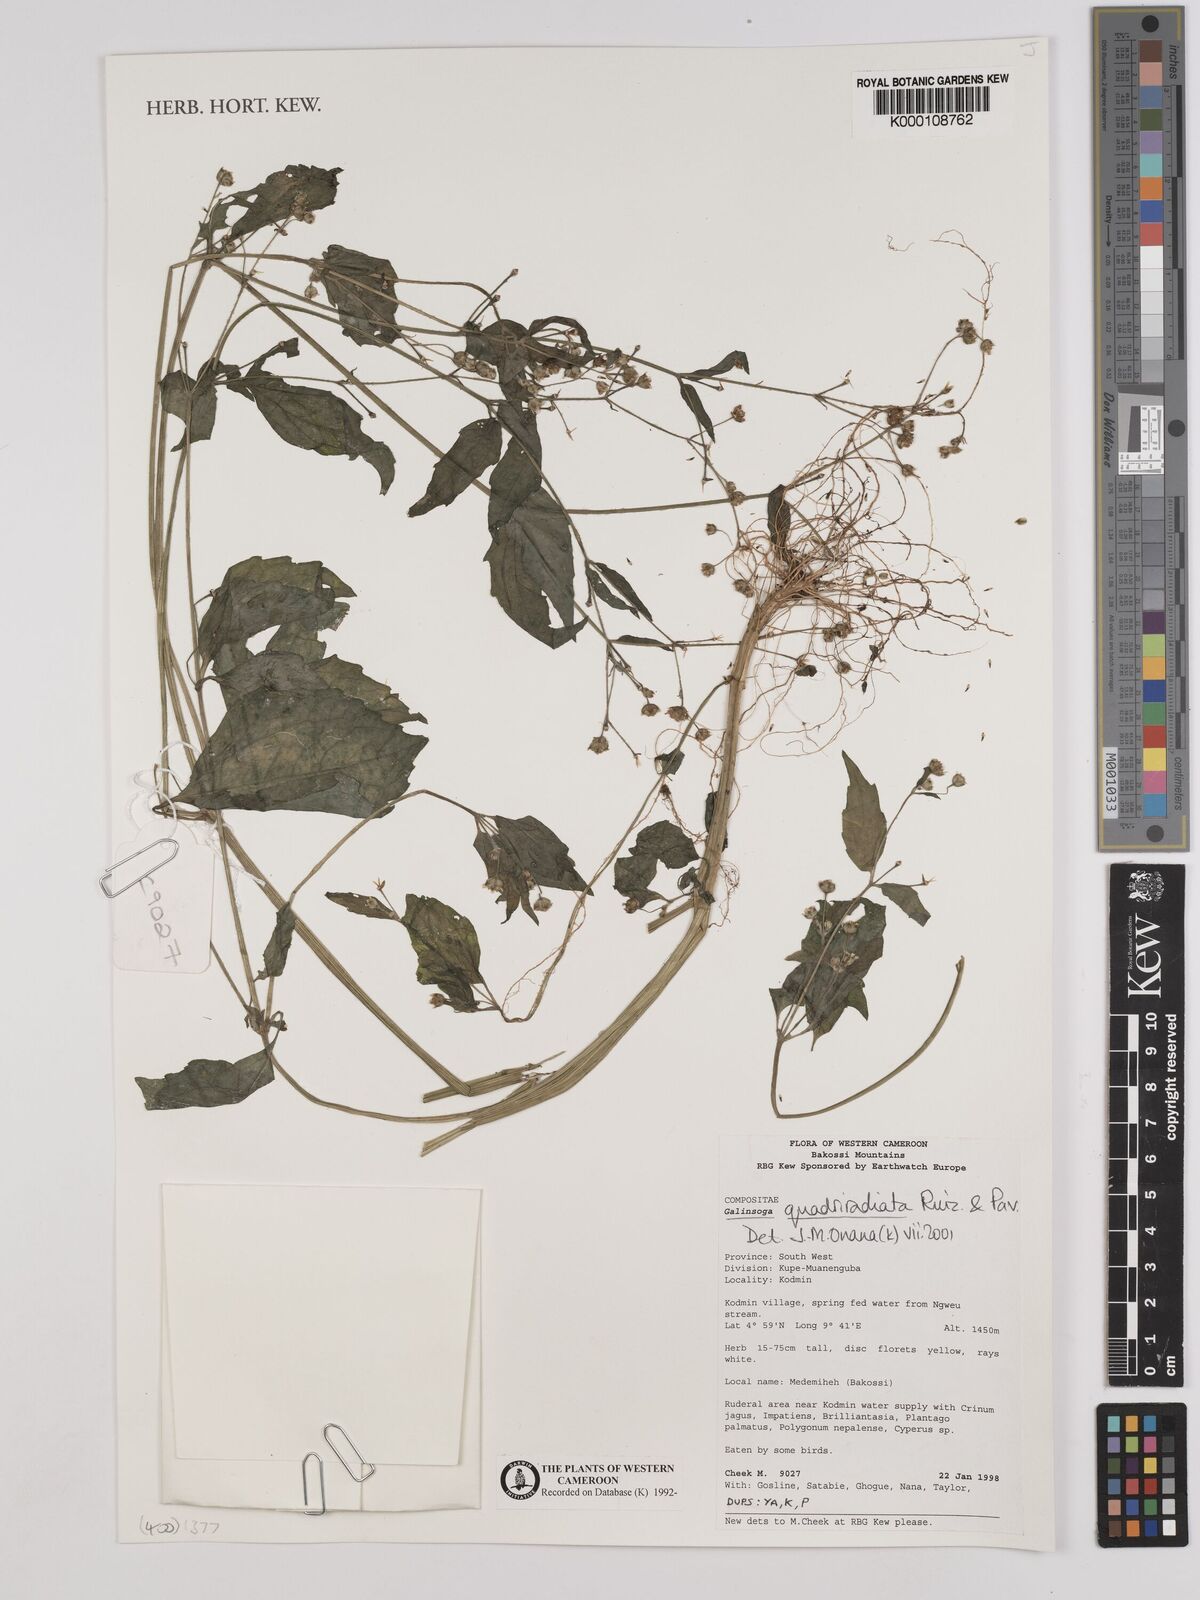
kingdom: Plantae
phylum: Tracheophyta
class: Magnoliopsida
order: Asterales
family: Asteraceae
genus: Galinsoga
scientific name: Galinsoga quadriradiata
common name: Shaggy soldier
